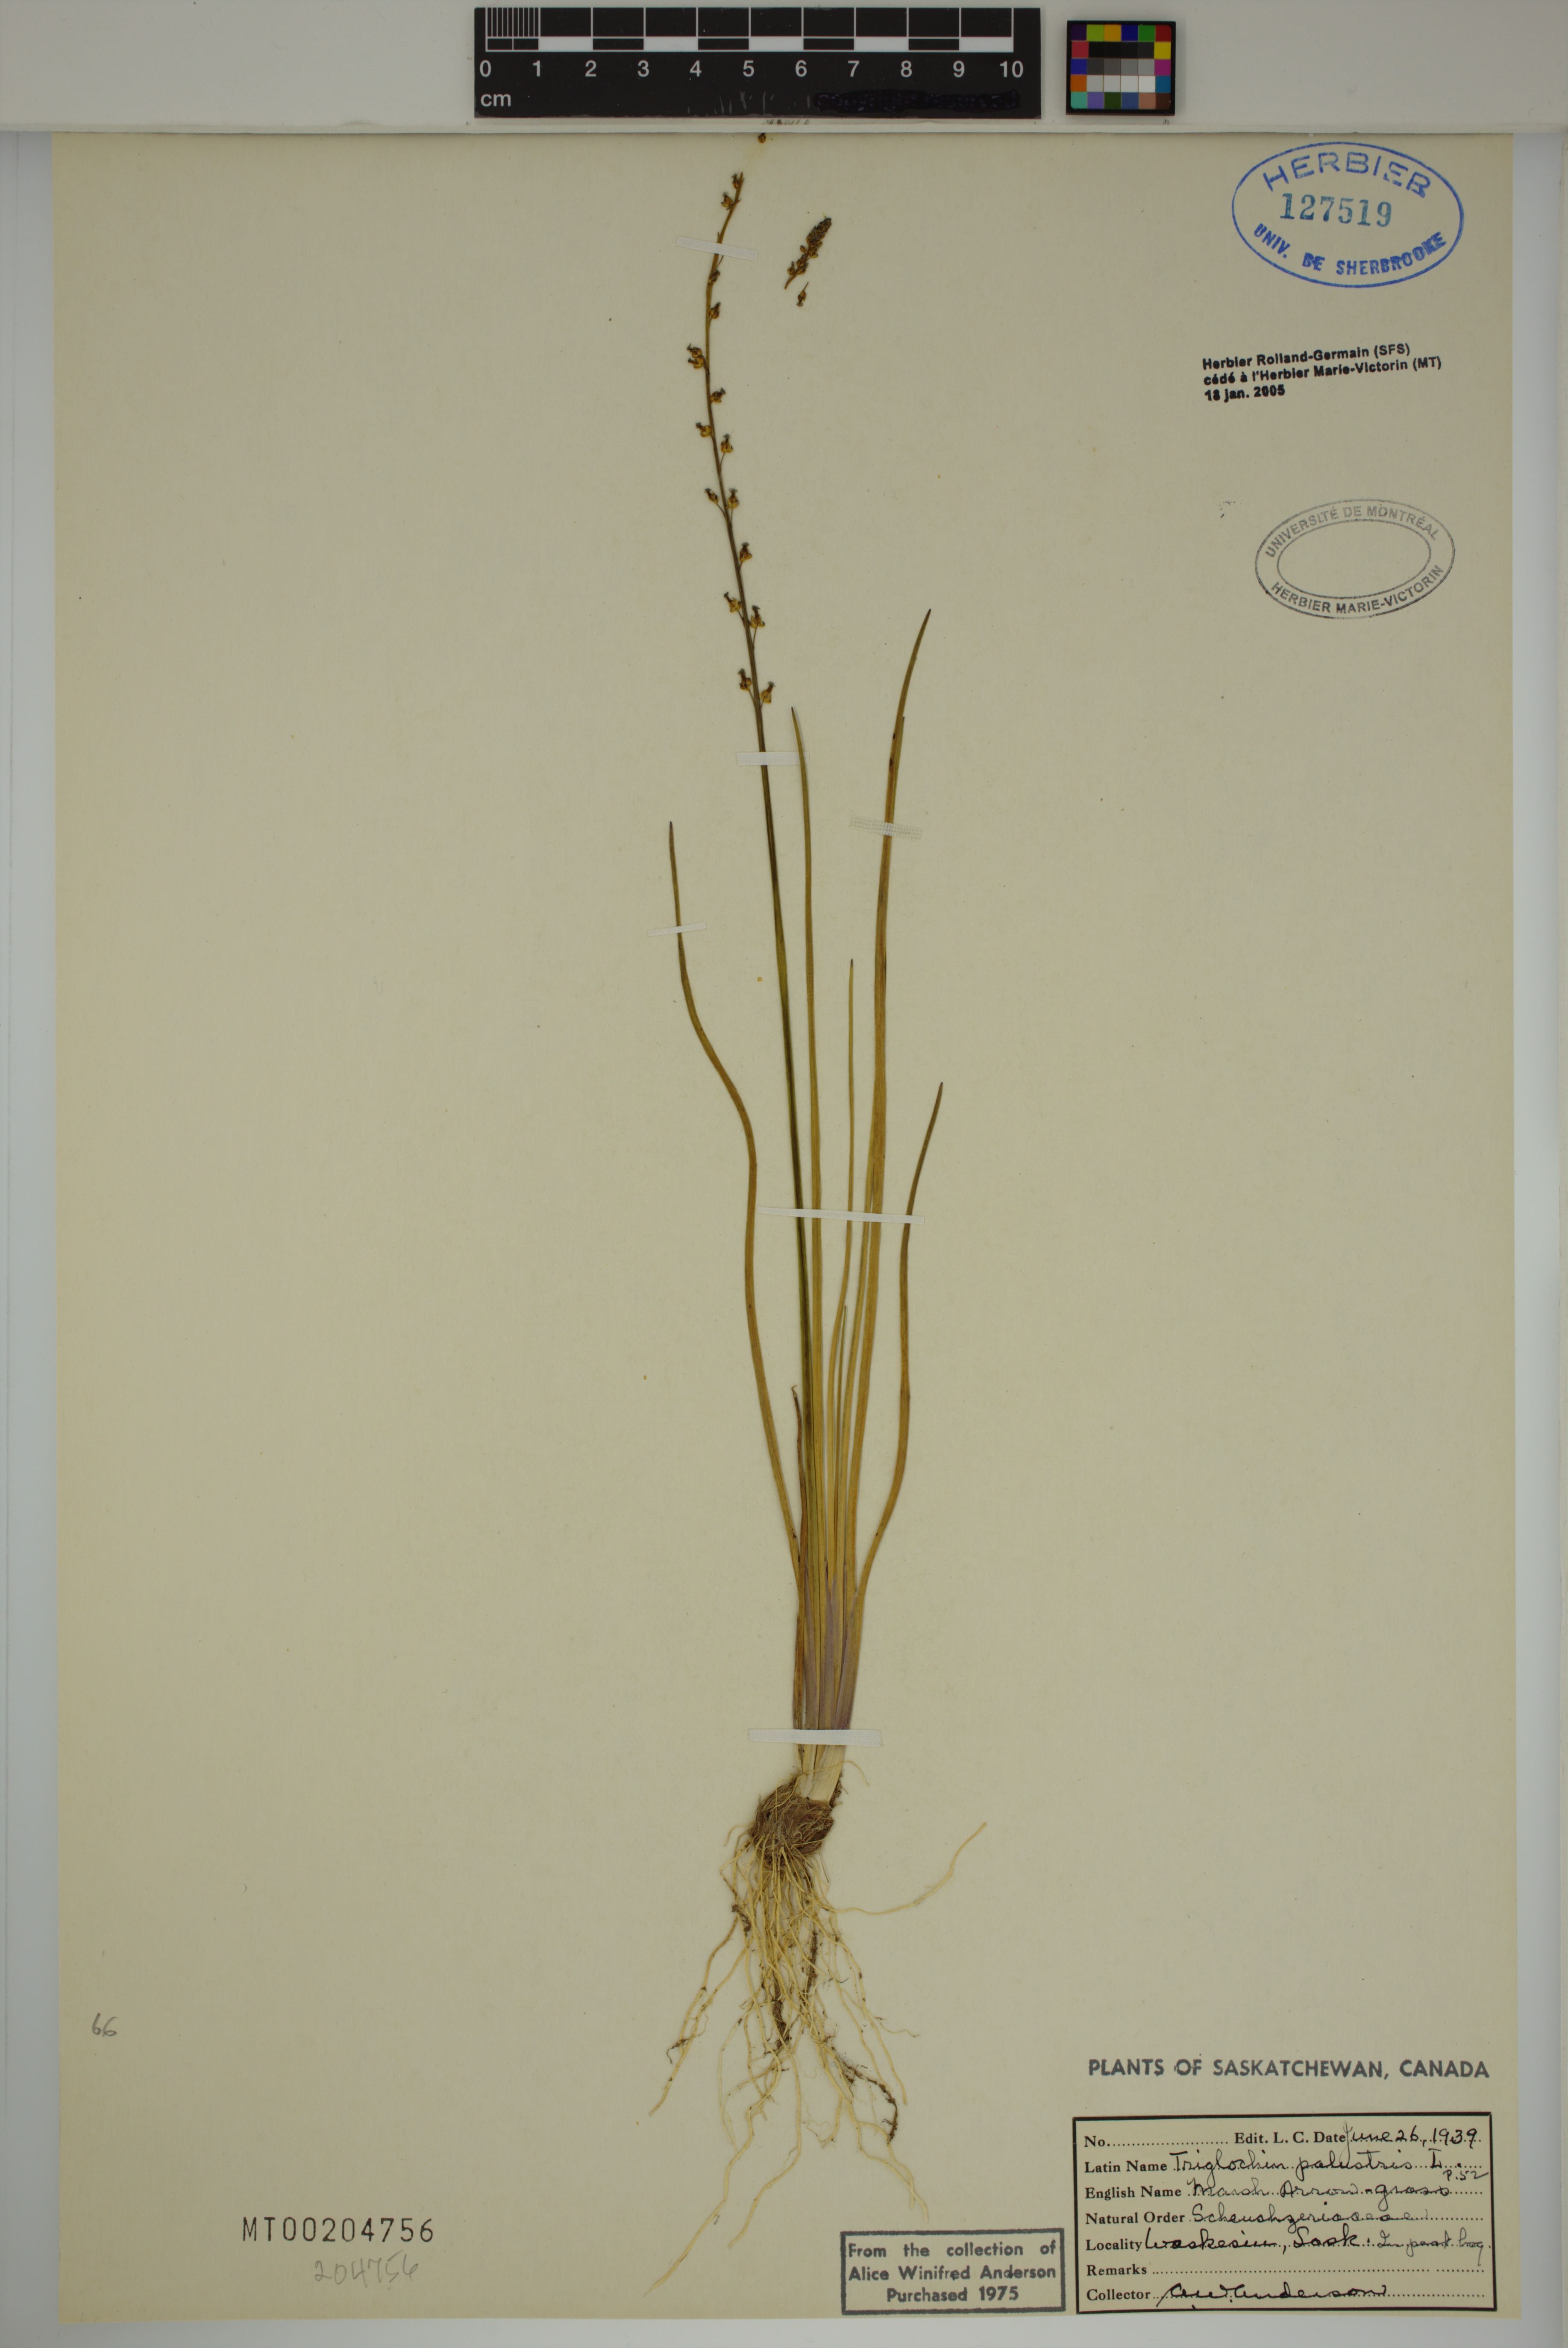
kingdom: Plantae
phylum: Tracheophyta
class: Liliopsida
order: Alismatales
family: Juncaginaceae
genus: Triglochin
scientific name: Triglochin palustris
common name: Marsh arrowgrass
